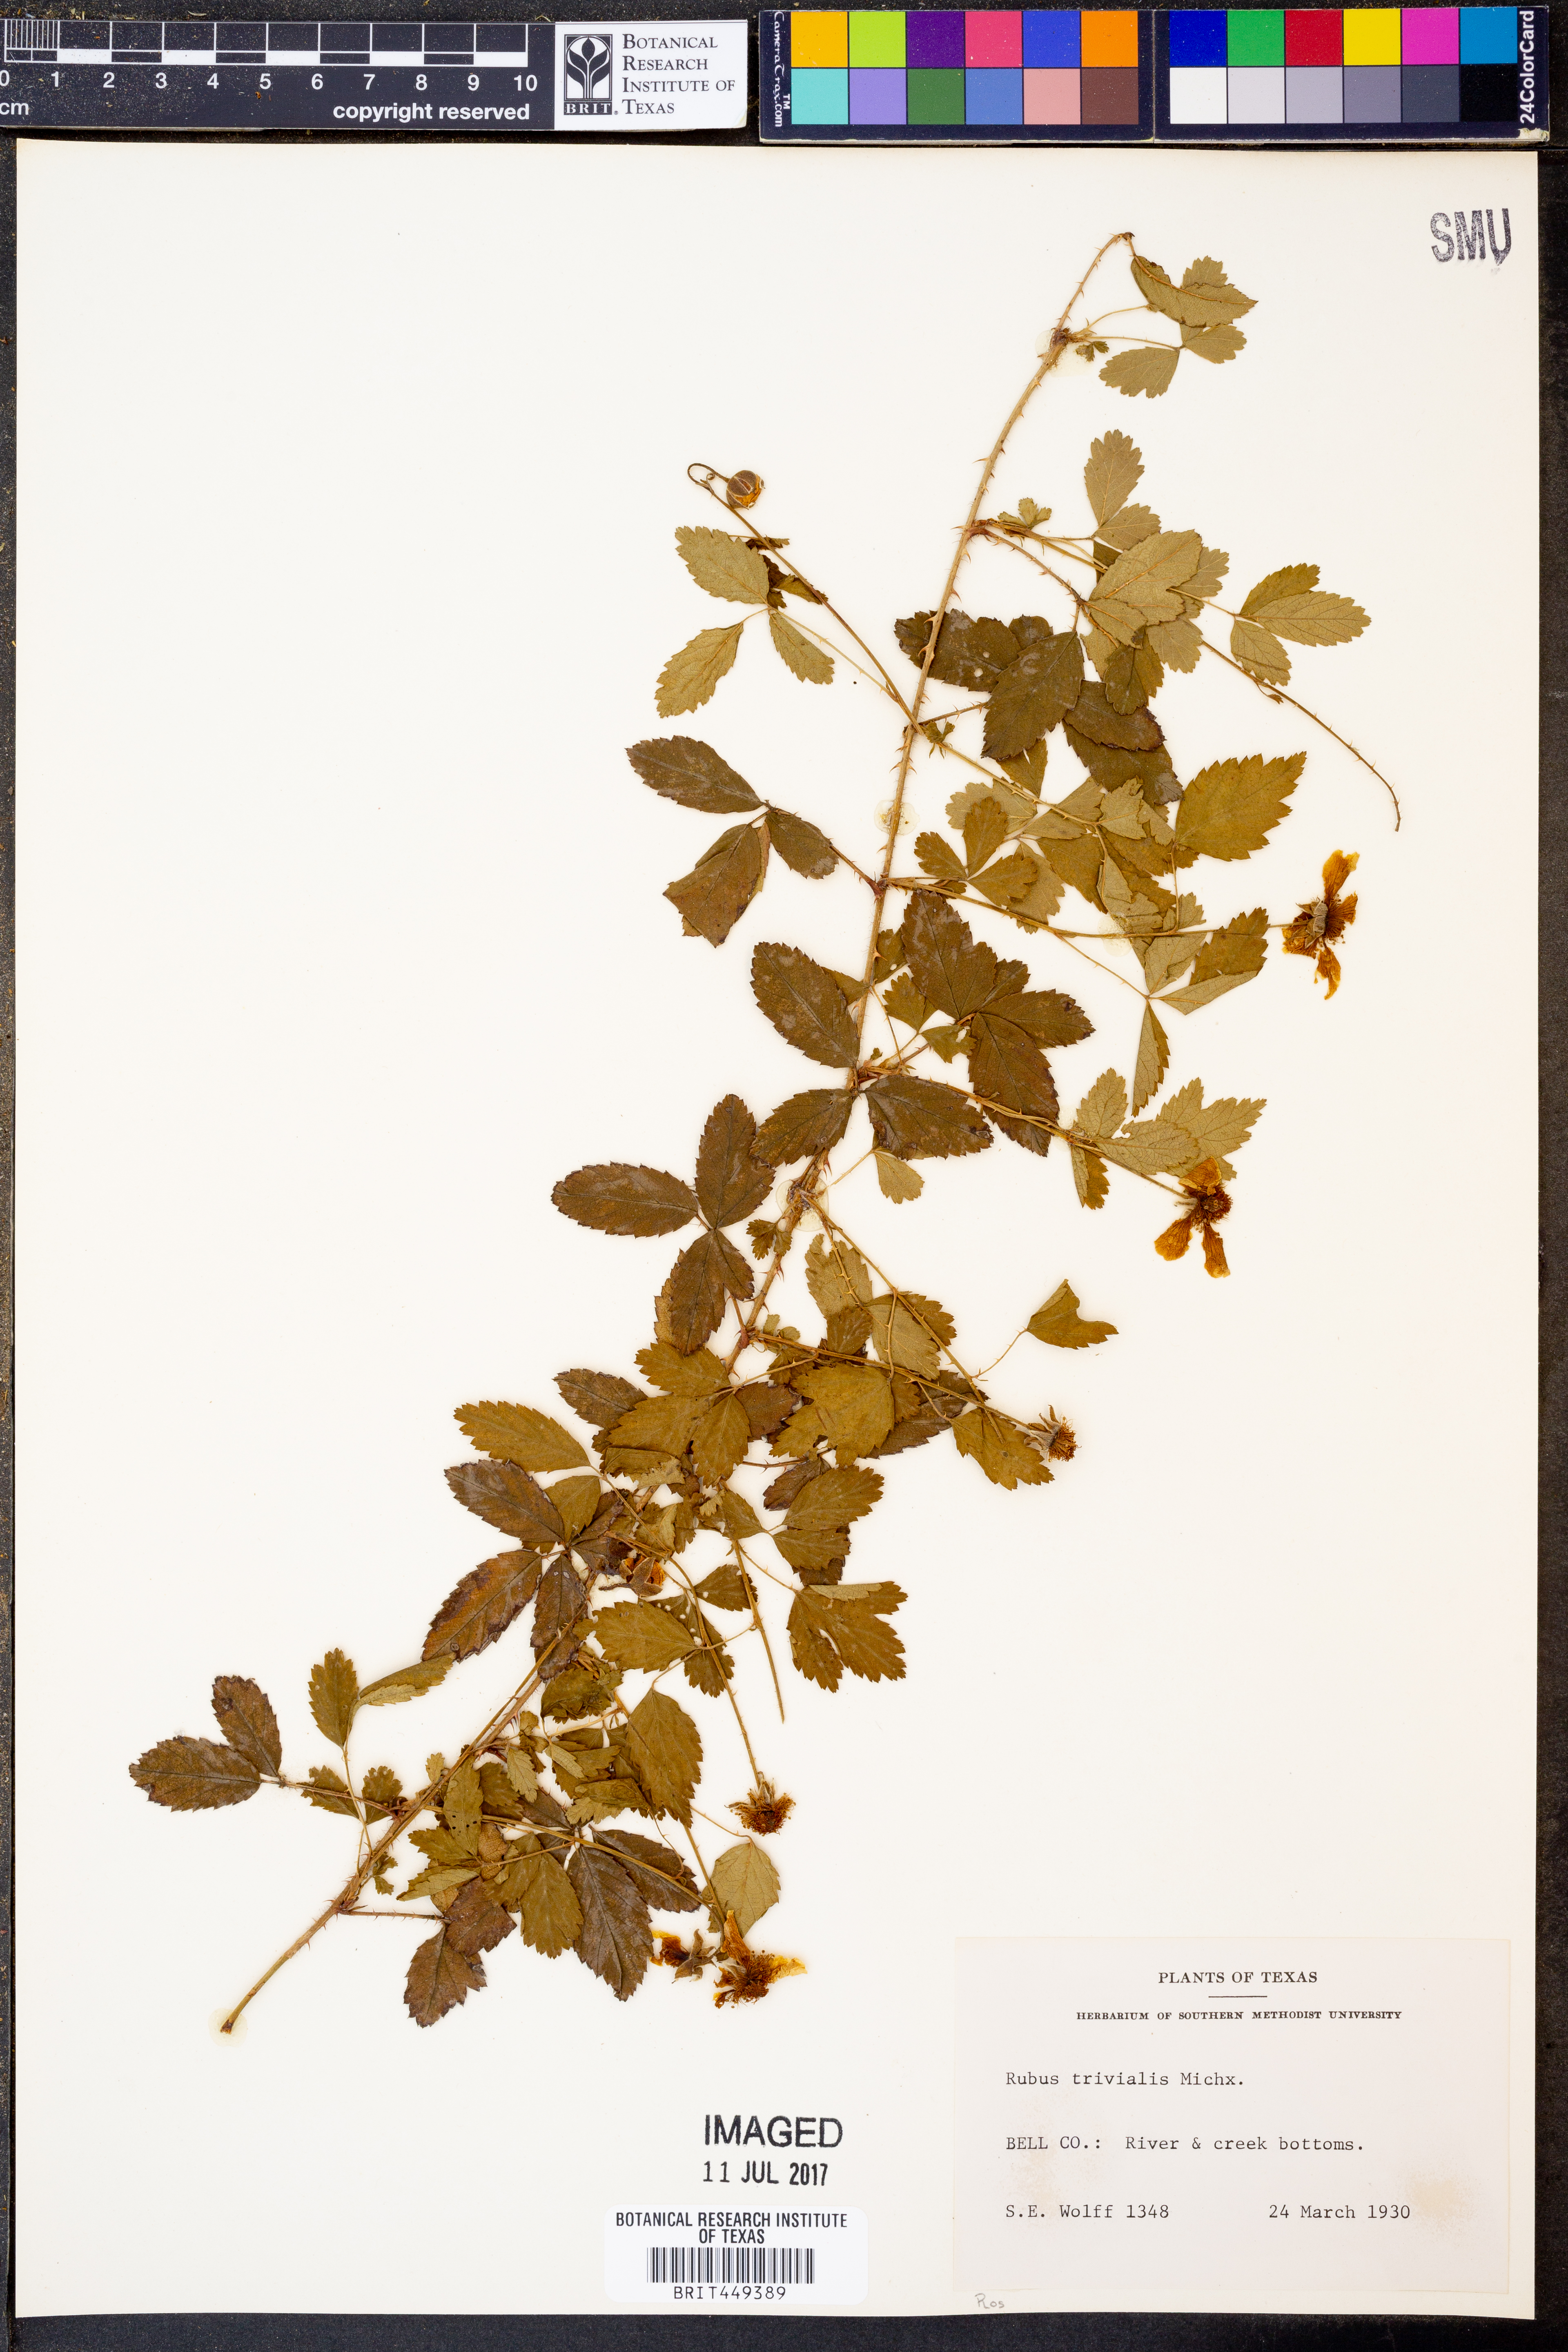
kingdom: Plantae
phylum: Tracheophyta
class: Magnoliopsida
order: Rosales
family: Rosaceae
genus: Rubus
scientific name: Rubus trivialis
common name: Southern dewberry
